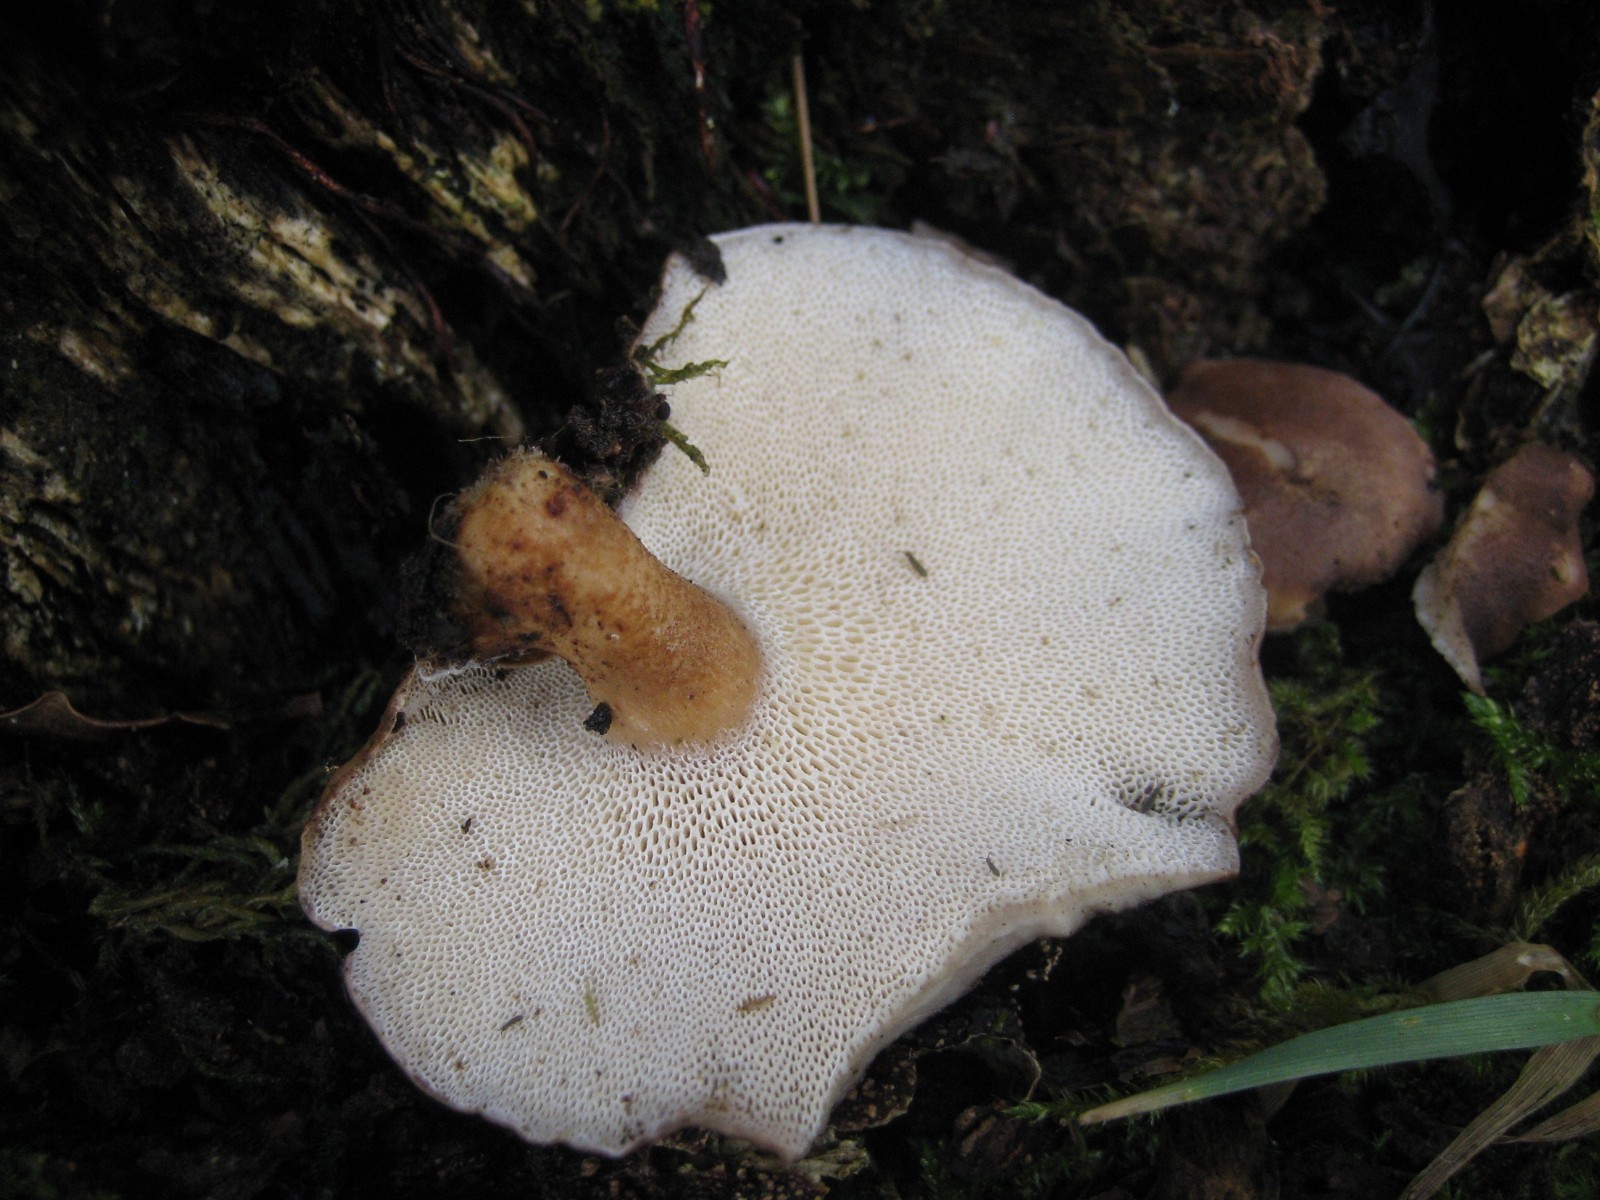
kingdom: Fungi
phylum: Basidiomycota
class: Agaricomycetes
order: Polyporales
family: Polyporaceae
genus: Lentinus
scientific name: Lentinus brumalis
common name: vinter-stilkporesvamp
